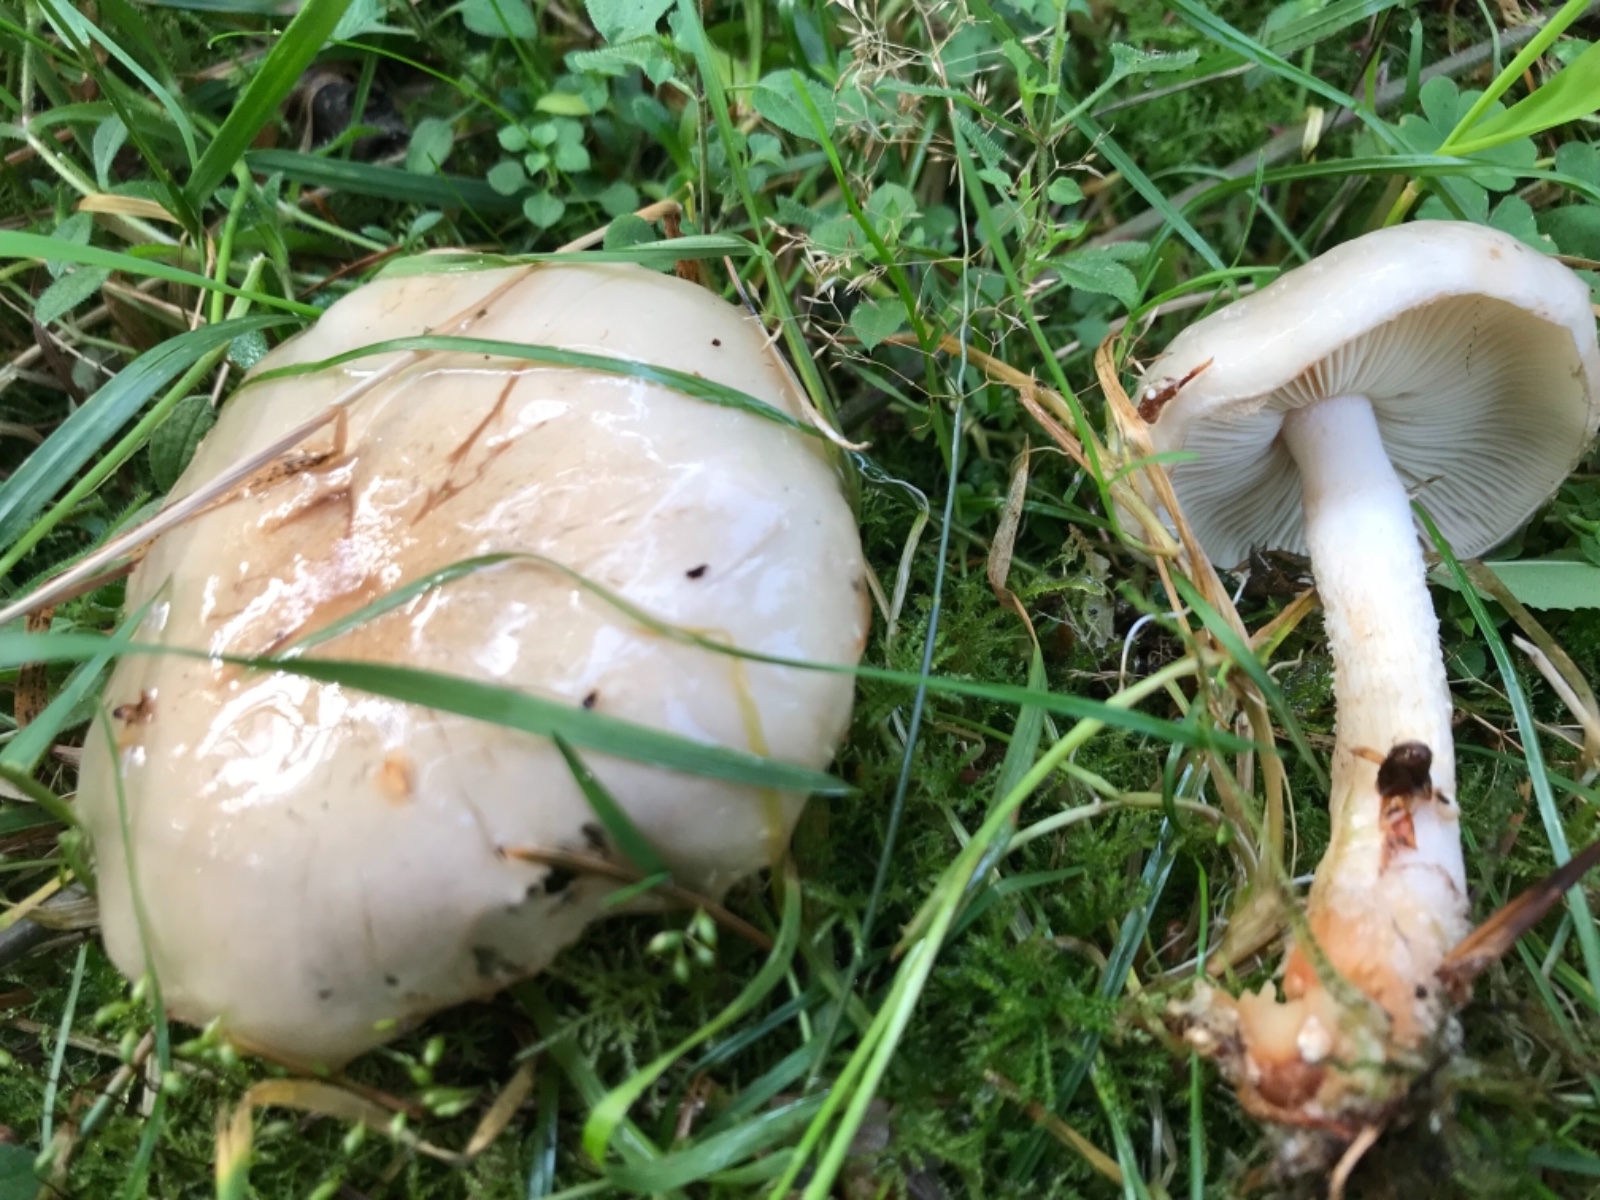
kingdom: Fungi
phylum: Basidiomycota
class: Agaricomycetes
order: Agaricales
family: Strophariaceae
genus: Pholiota
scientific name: Pholiota lenta
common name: løv-skælhat
